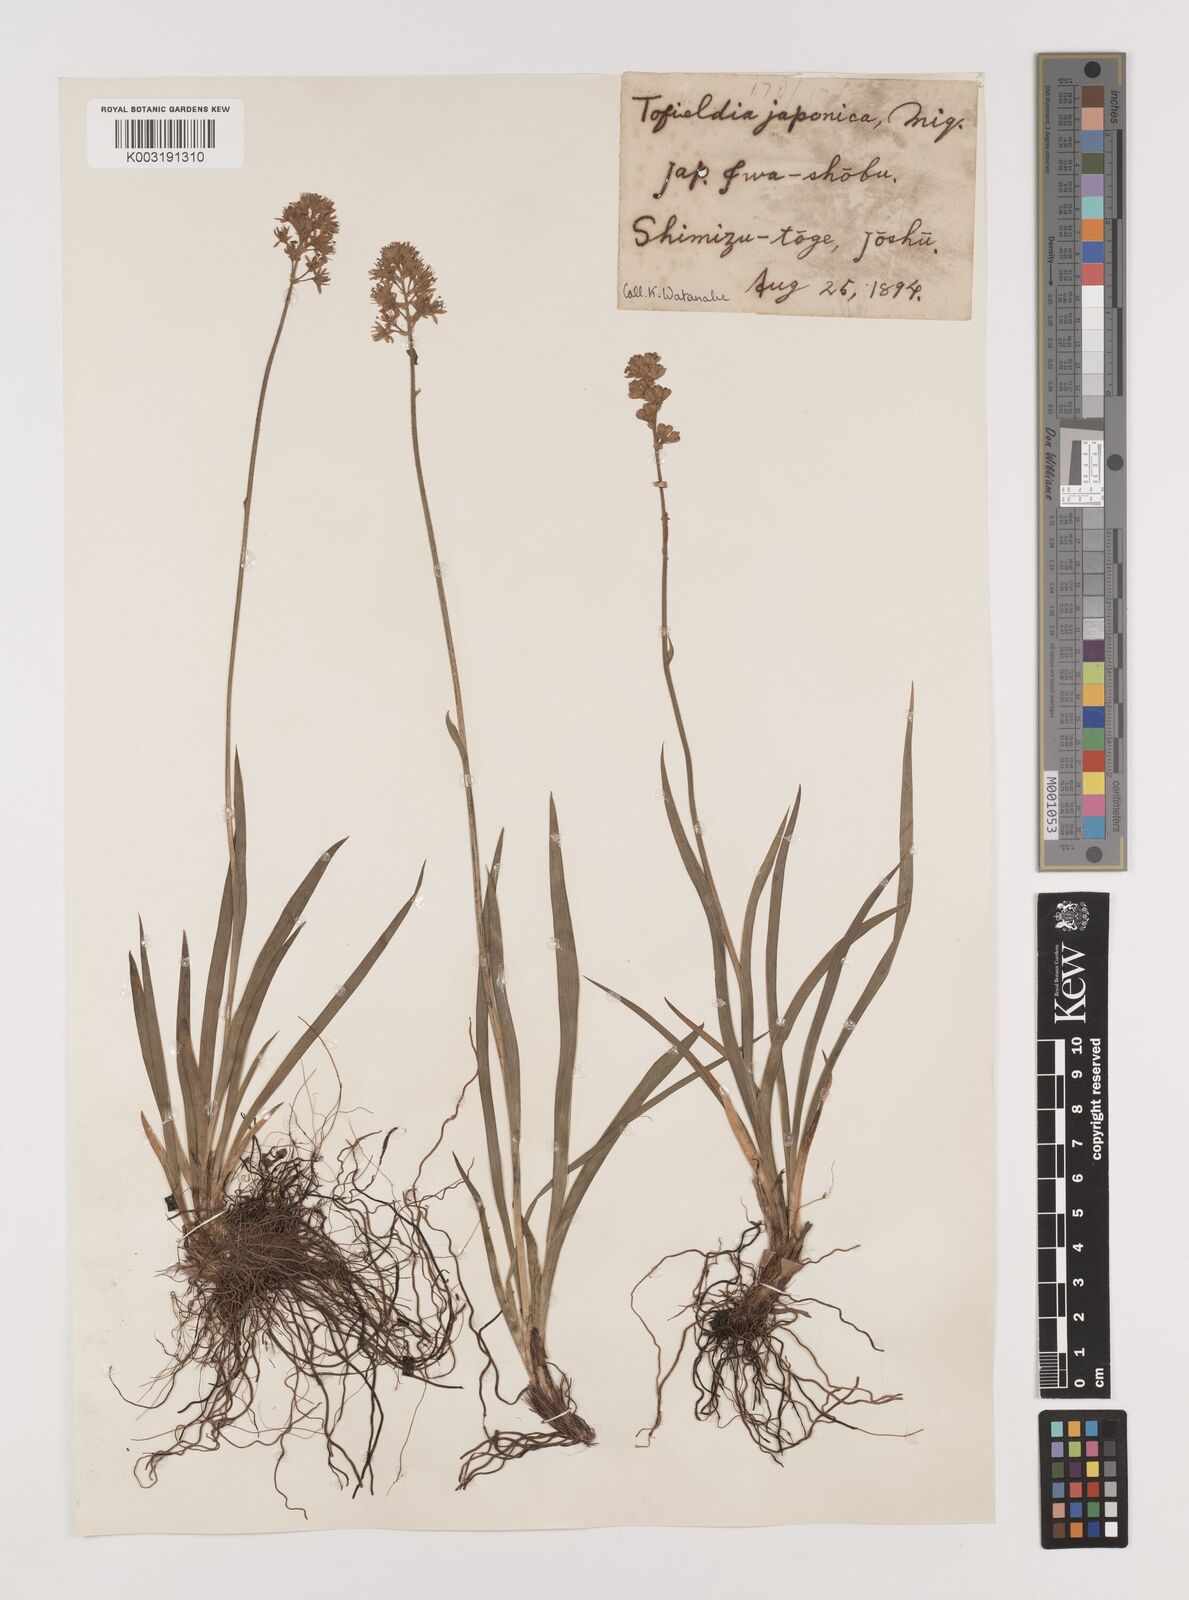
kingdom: Plantae
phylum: Tracheophyta
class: Liliopsida
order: Alismatales
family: Tofieldiaceae
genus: Triantha
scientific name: Triantha japonica
